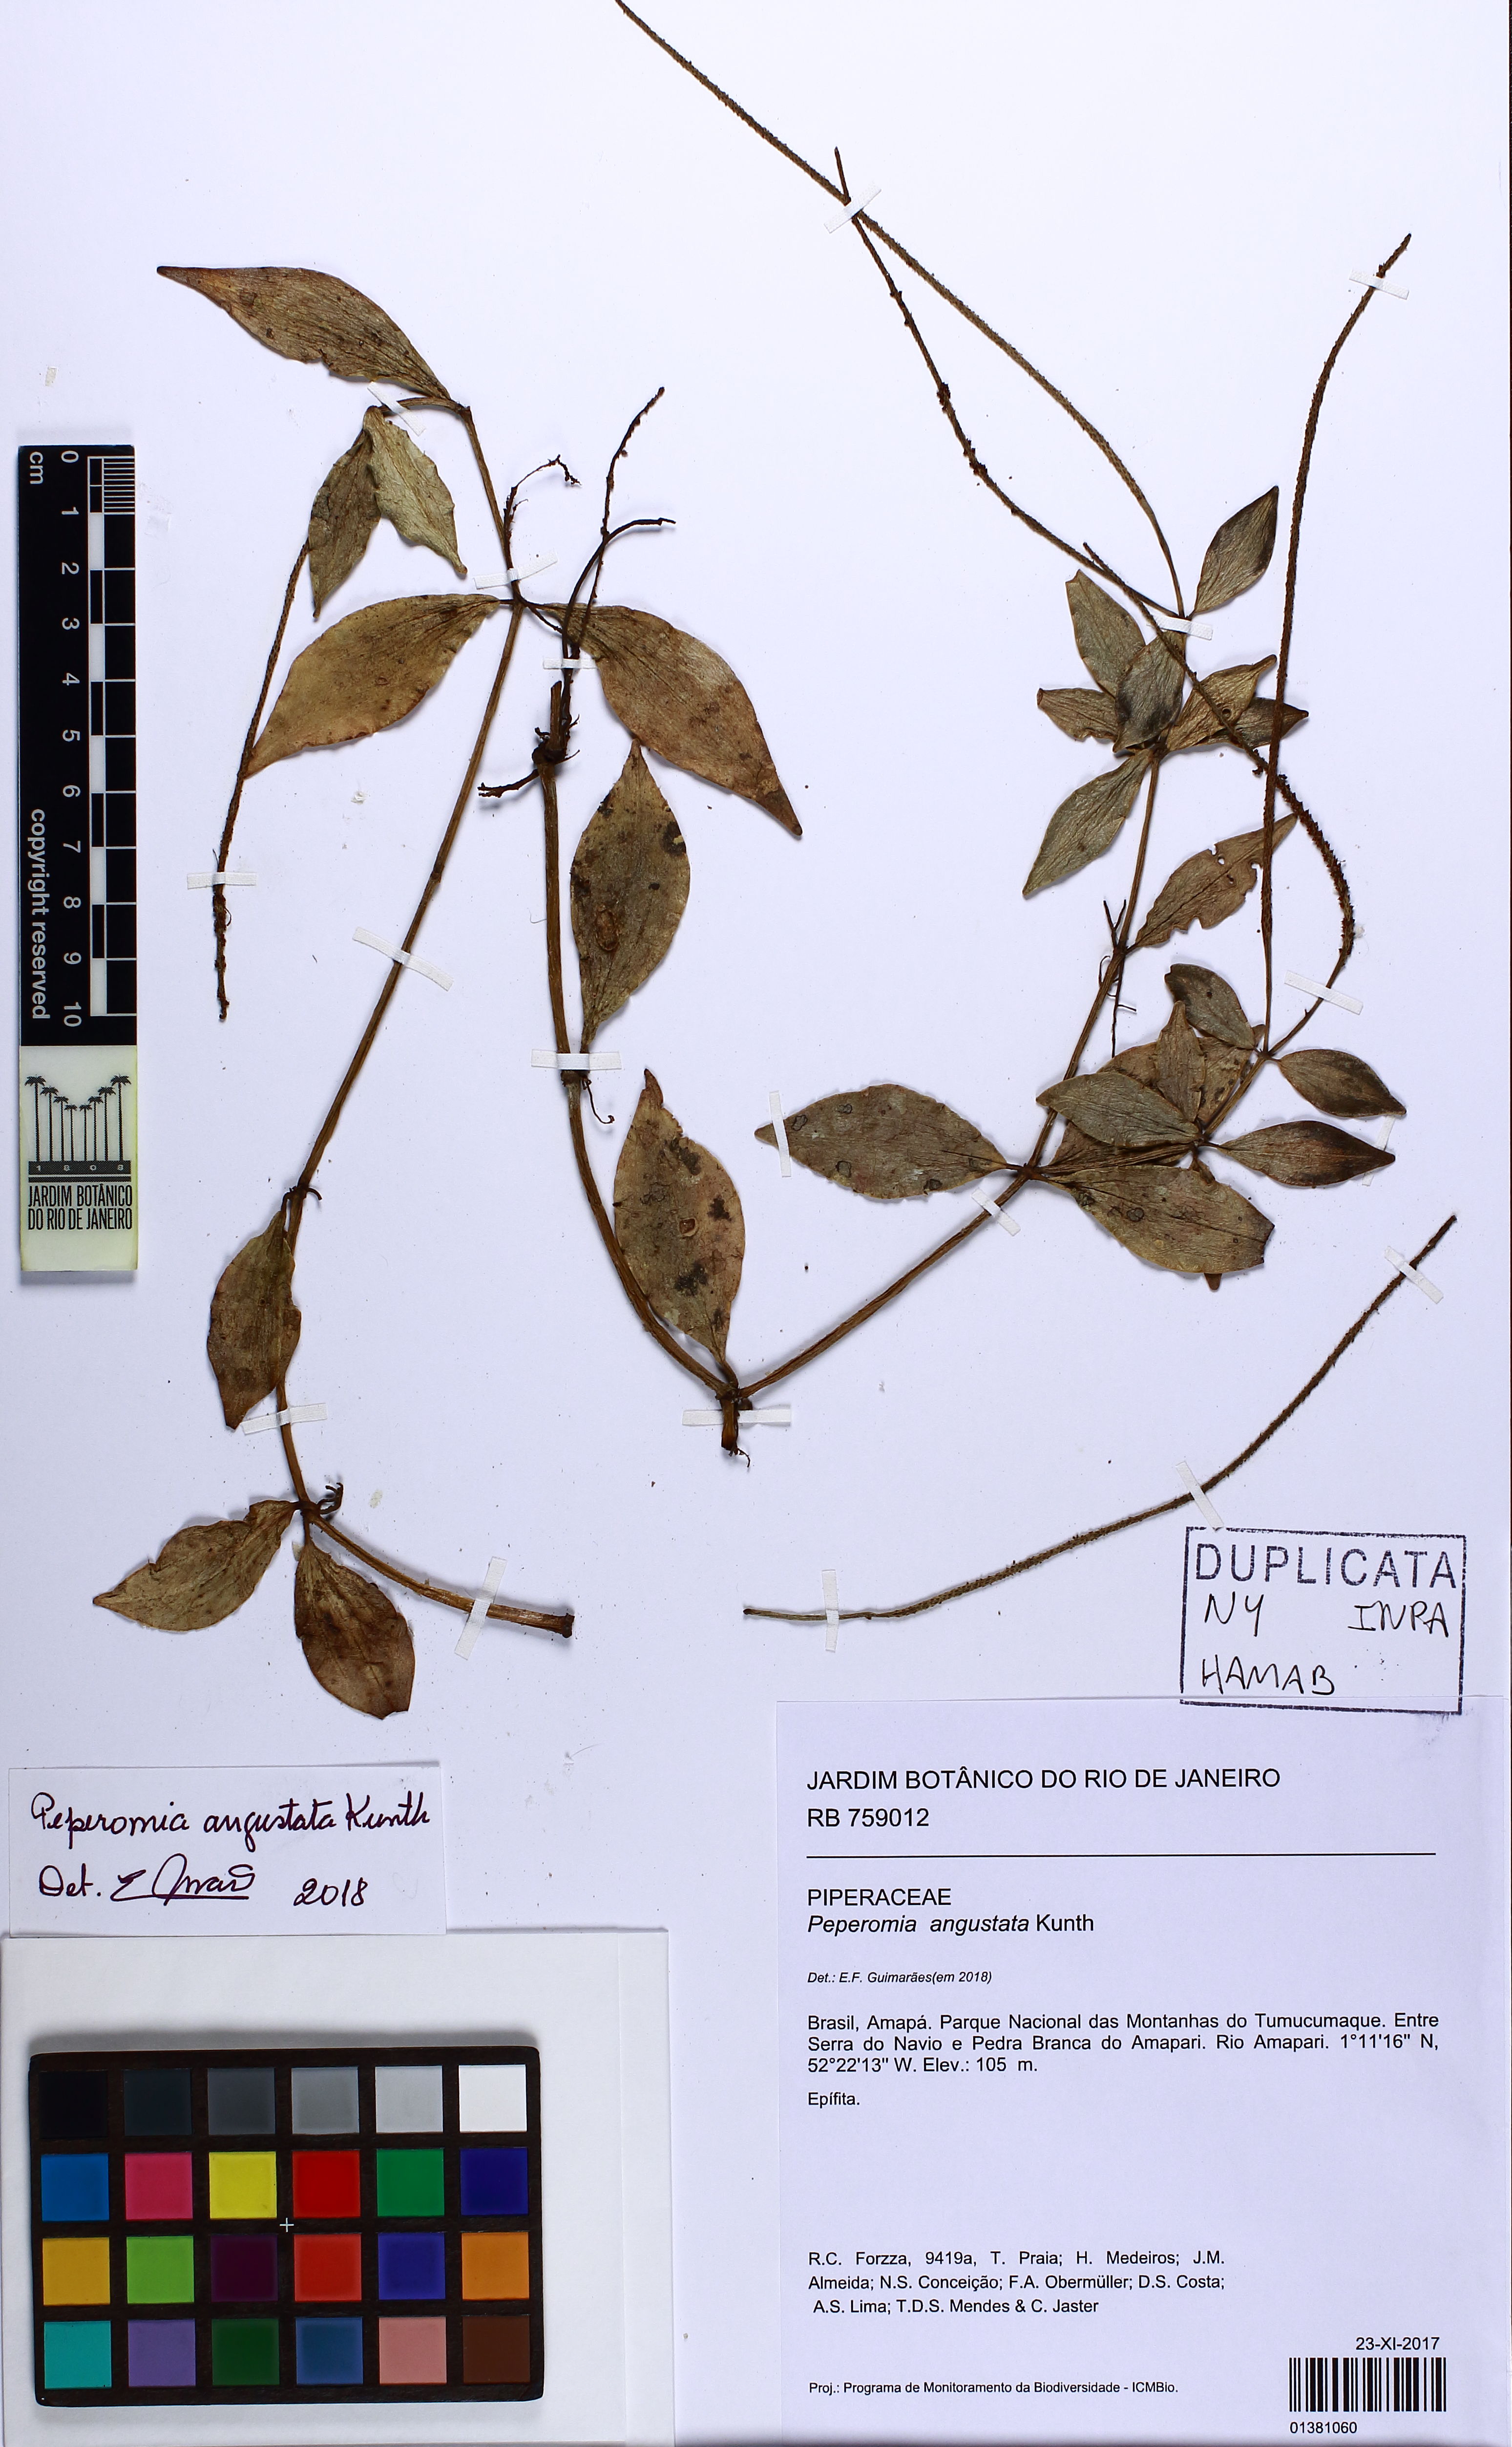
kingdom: Plantae
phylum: Tracheophyta
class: Magnoliopsida
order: Piperales
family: Piperaceae
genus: Peperomia
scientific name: Peperomia angustata
